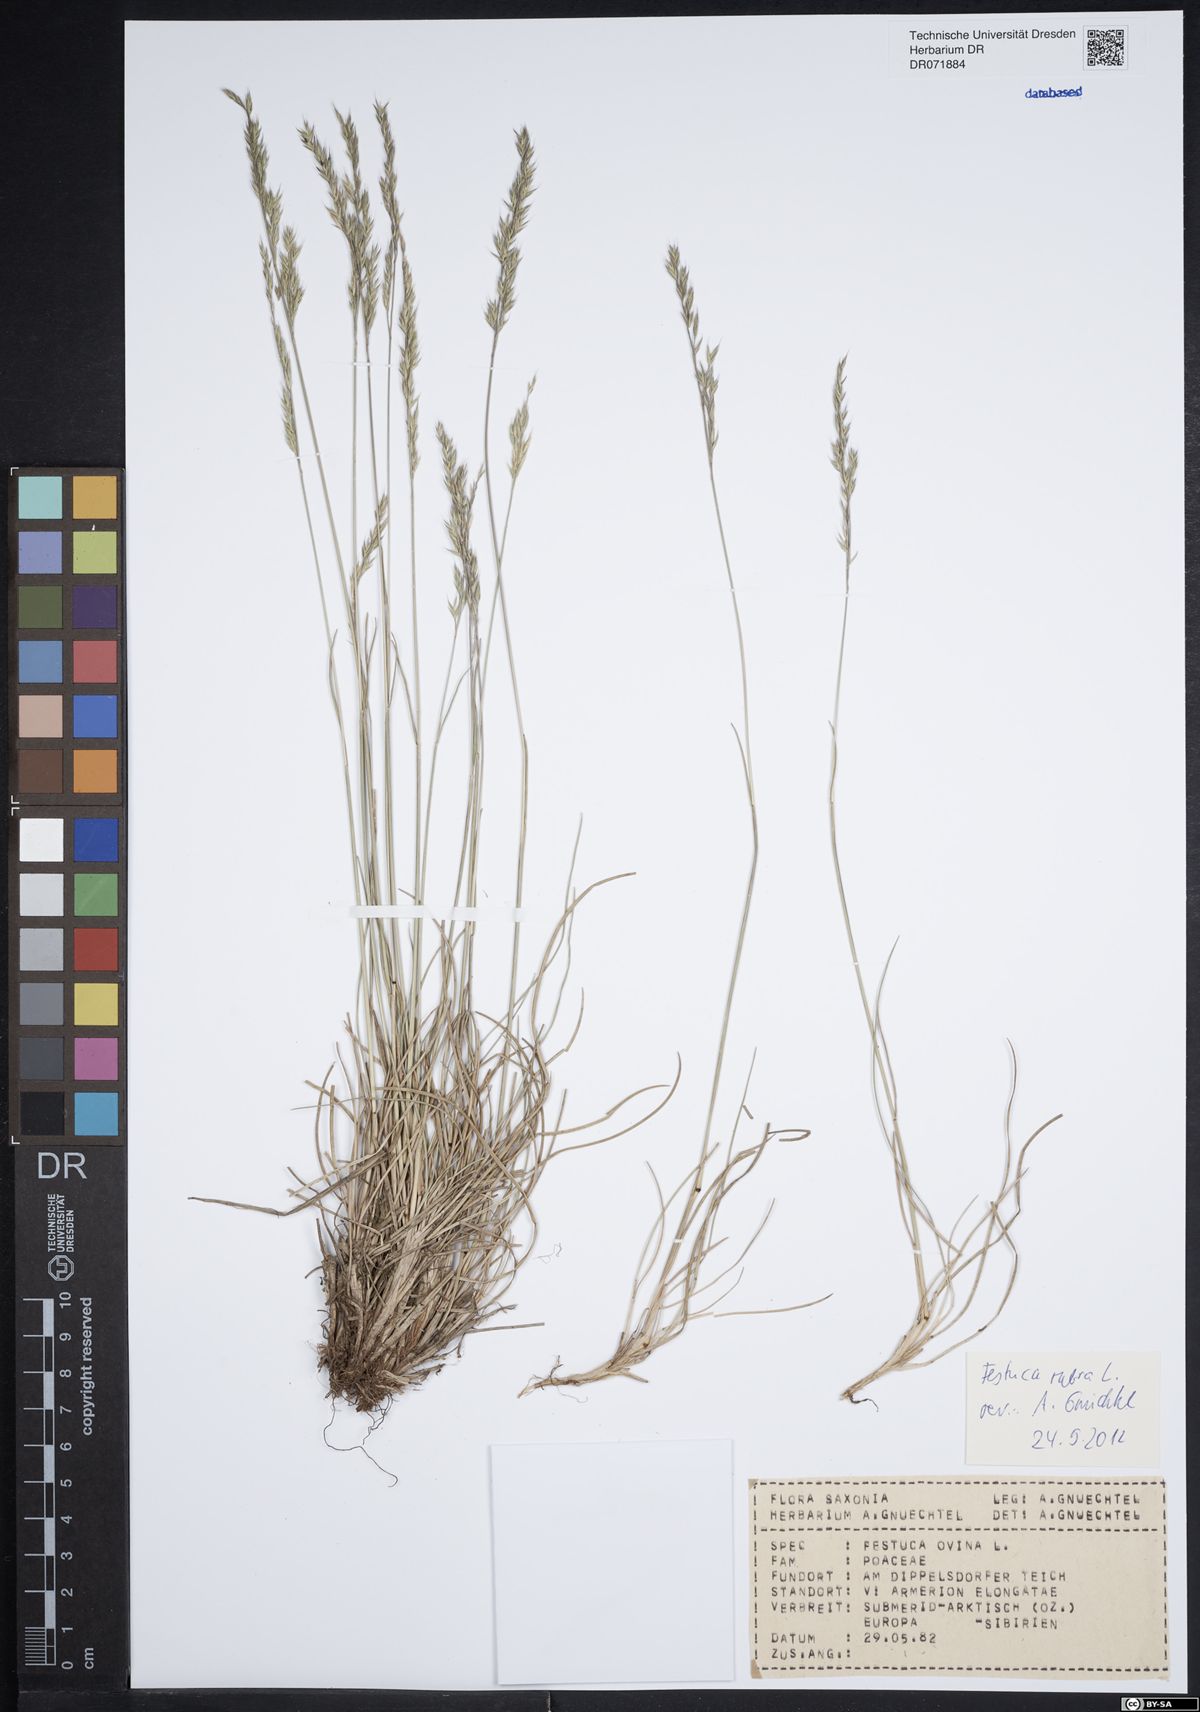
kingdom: Plantae
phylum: Tracheophyta
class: Liliopsida
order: Poales
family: Poaceae
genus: Festuca
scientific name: Festuca rubra
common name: Red fescue
